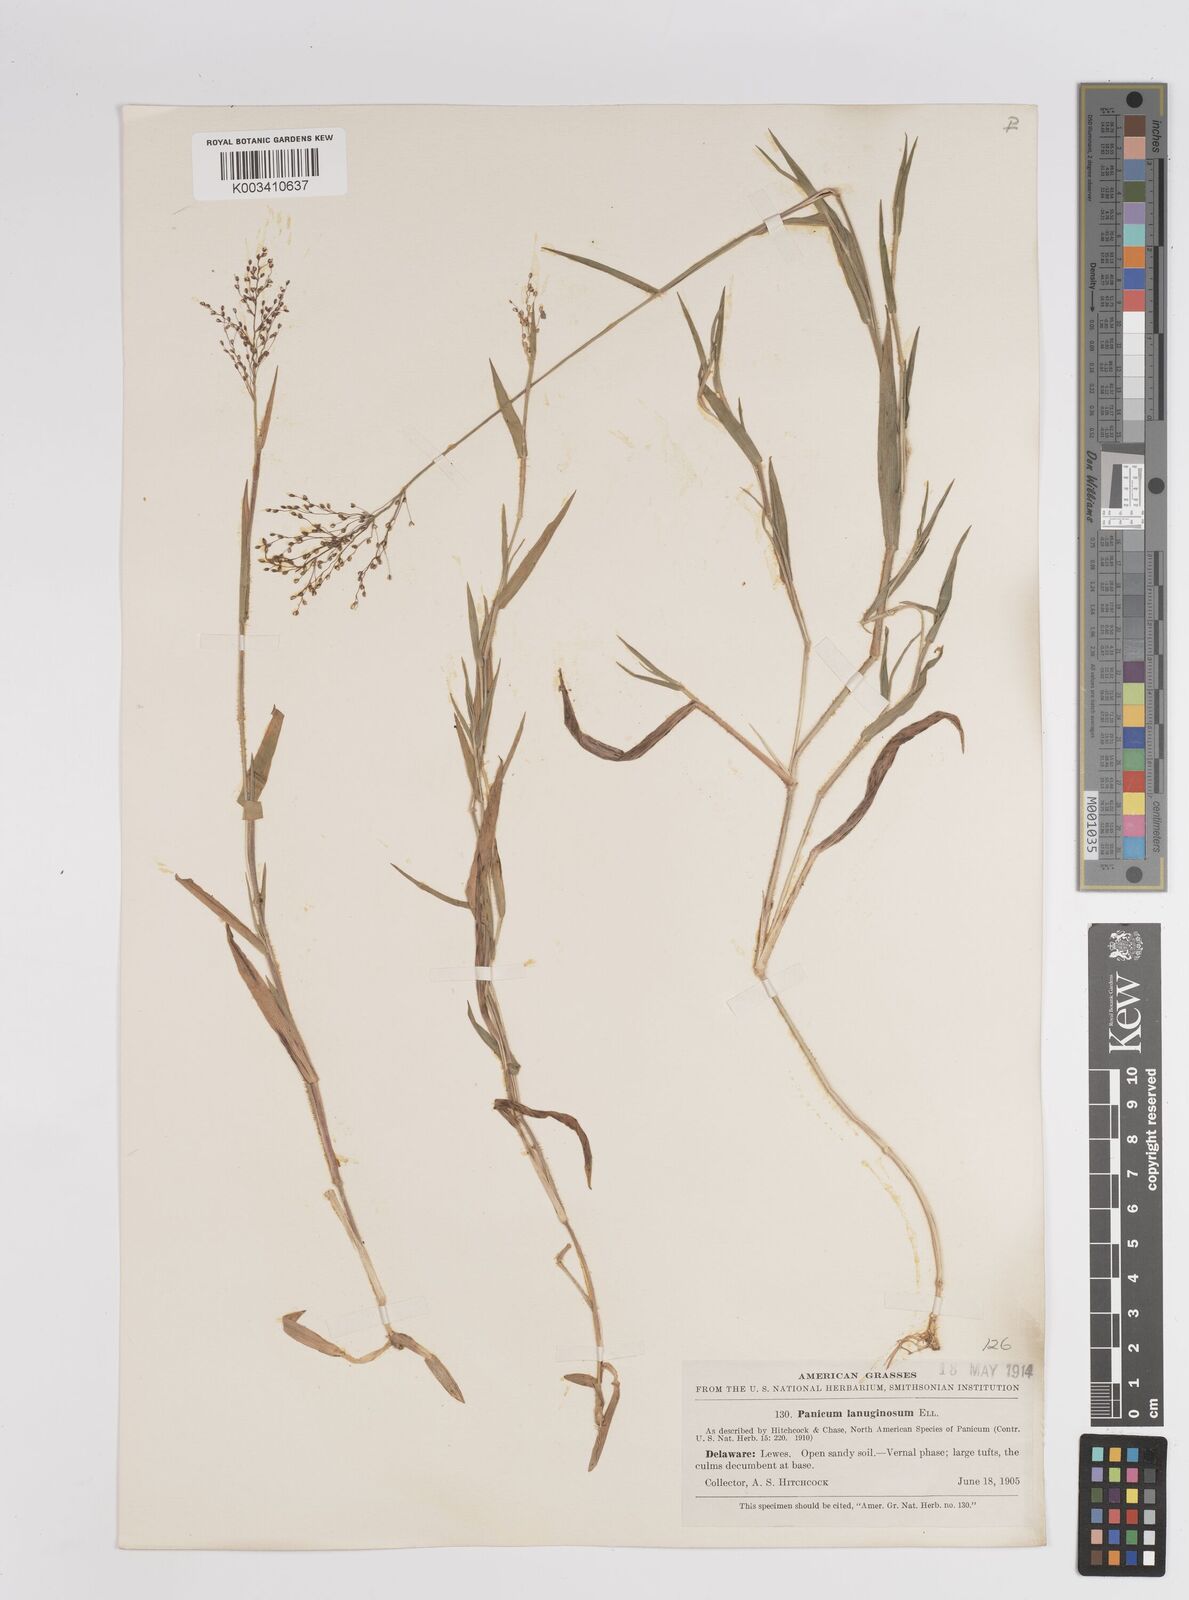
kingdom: Plantae
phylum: Tracheophyta
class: Liliopsida
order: Poales
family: Poaceae
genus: Dichanthelium
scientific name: Dichanthelium lanuginosum
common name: Woolly panicgrass
